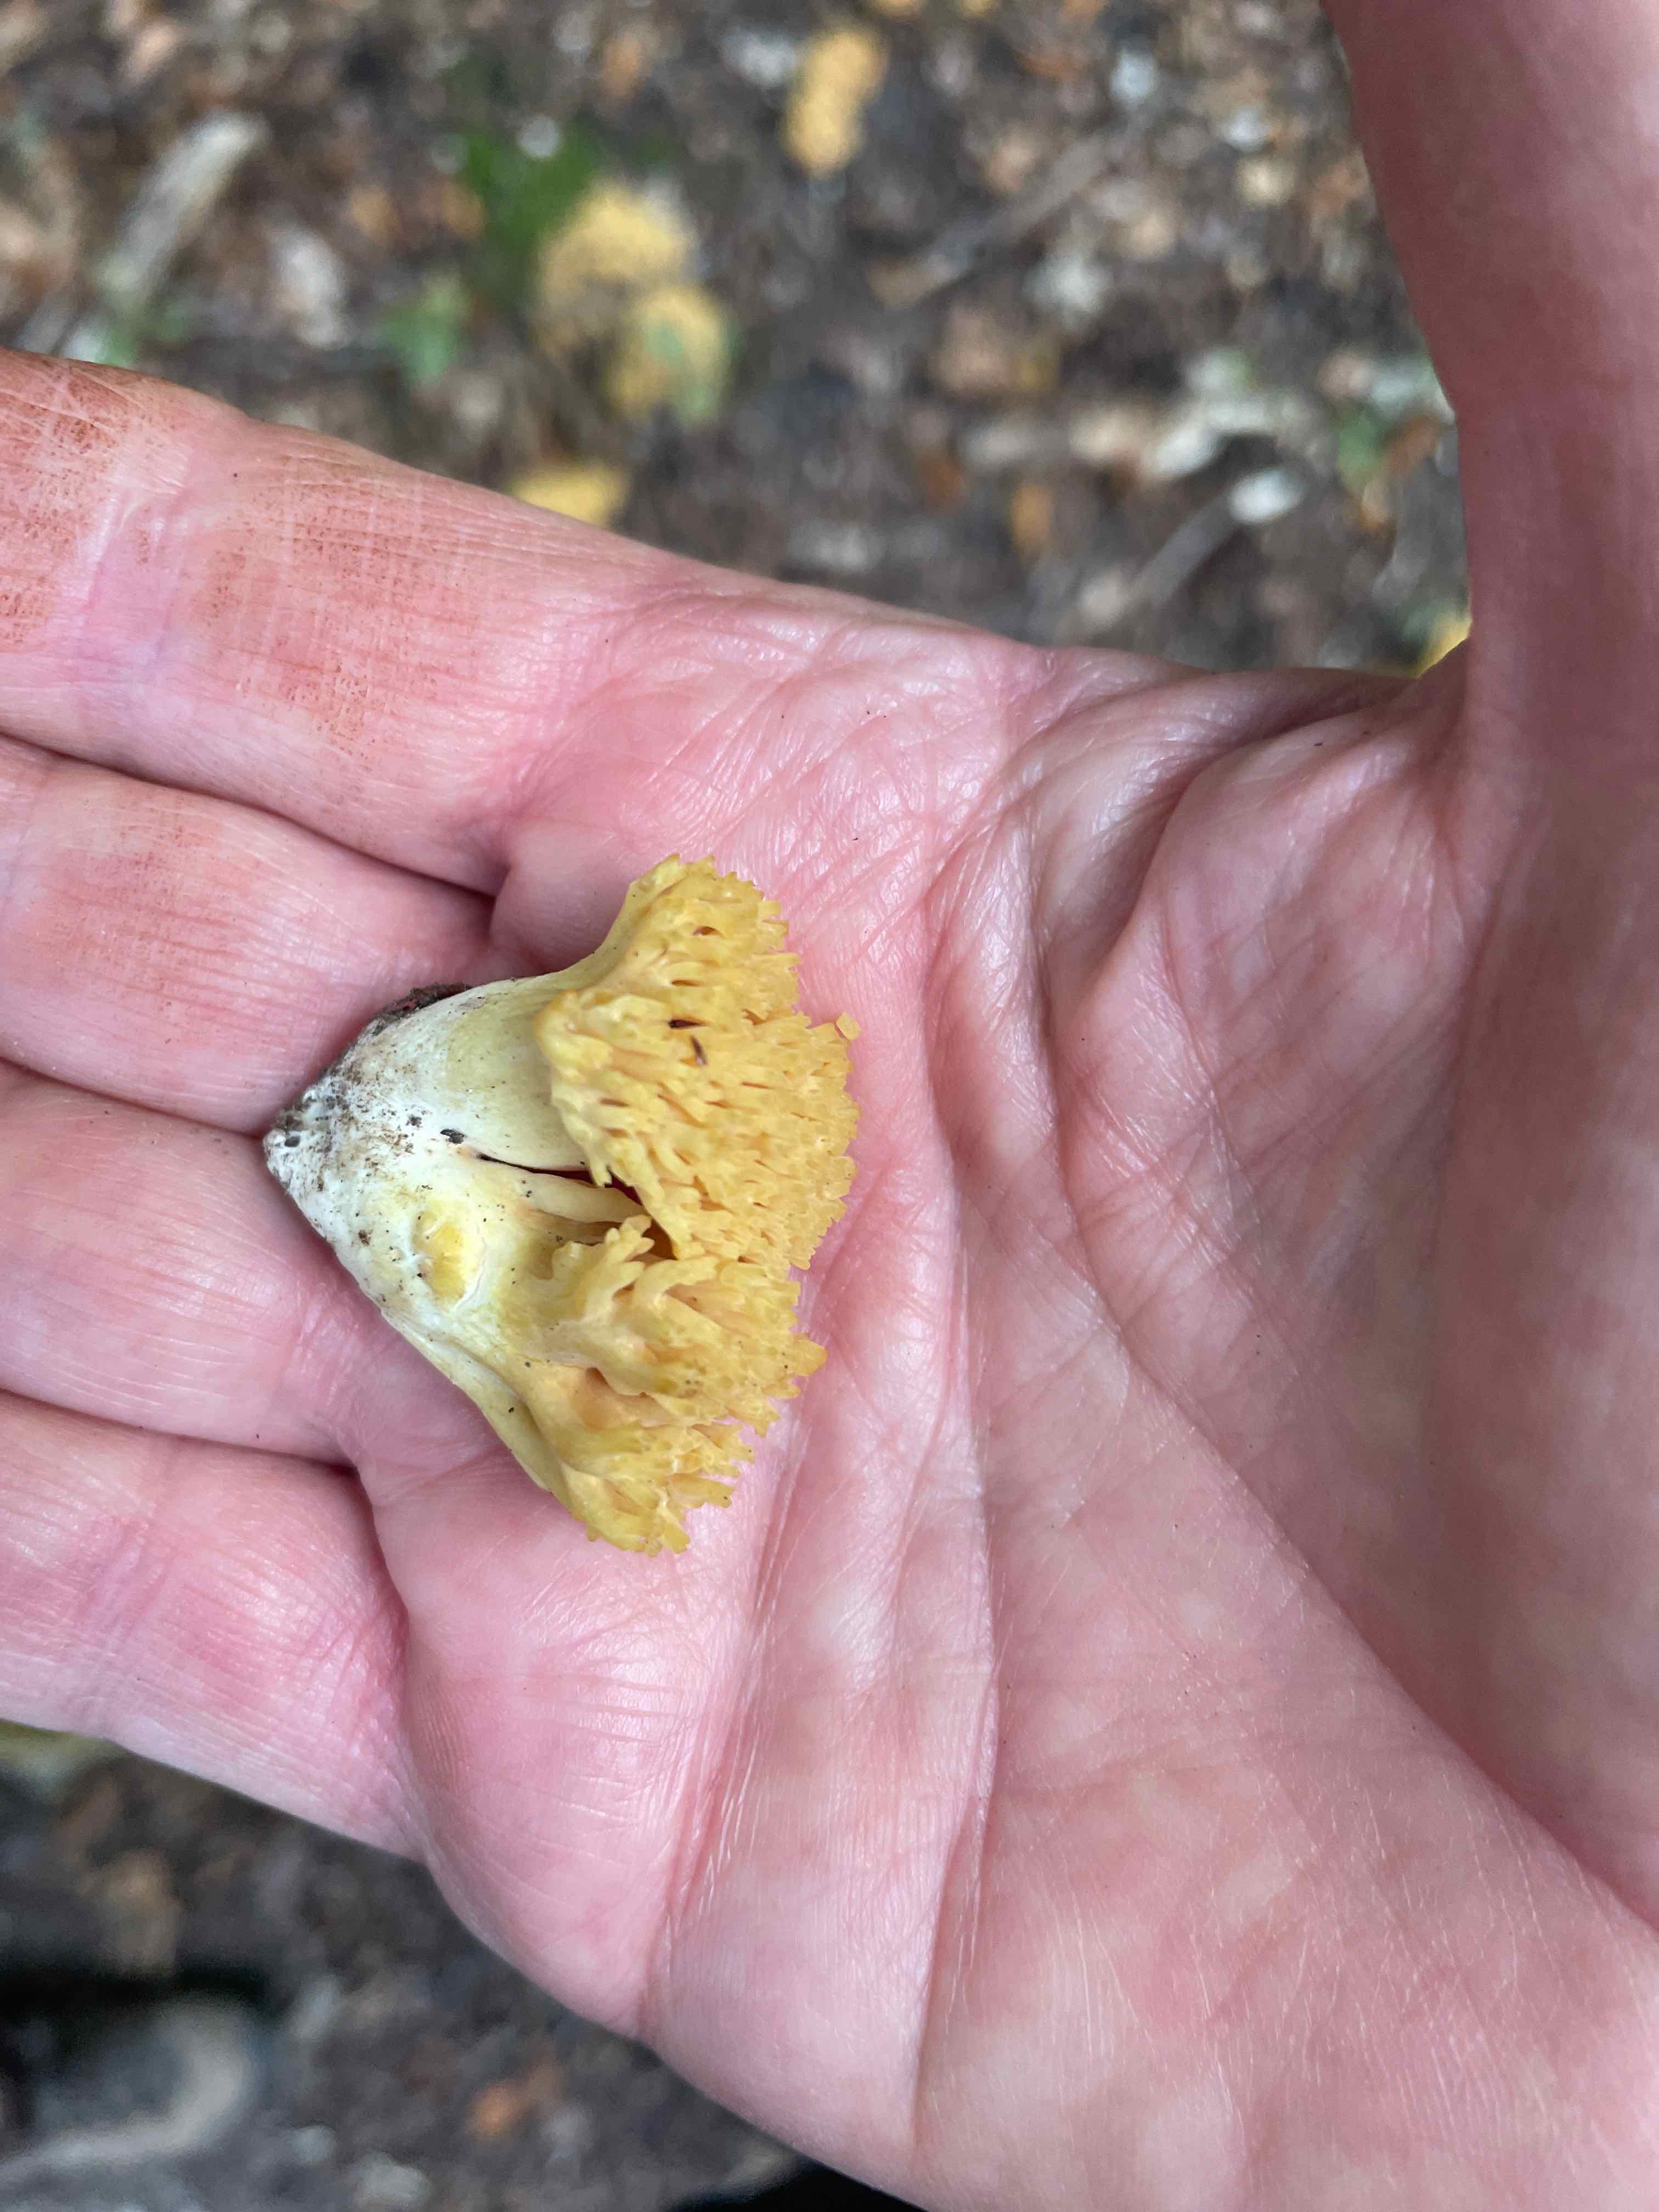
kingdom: Fungi
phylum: Basidiomycota
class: Agaricomycetes
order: Gomphales
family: Gomphaceae
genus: Ramaria
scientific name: Ramaria
